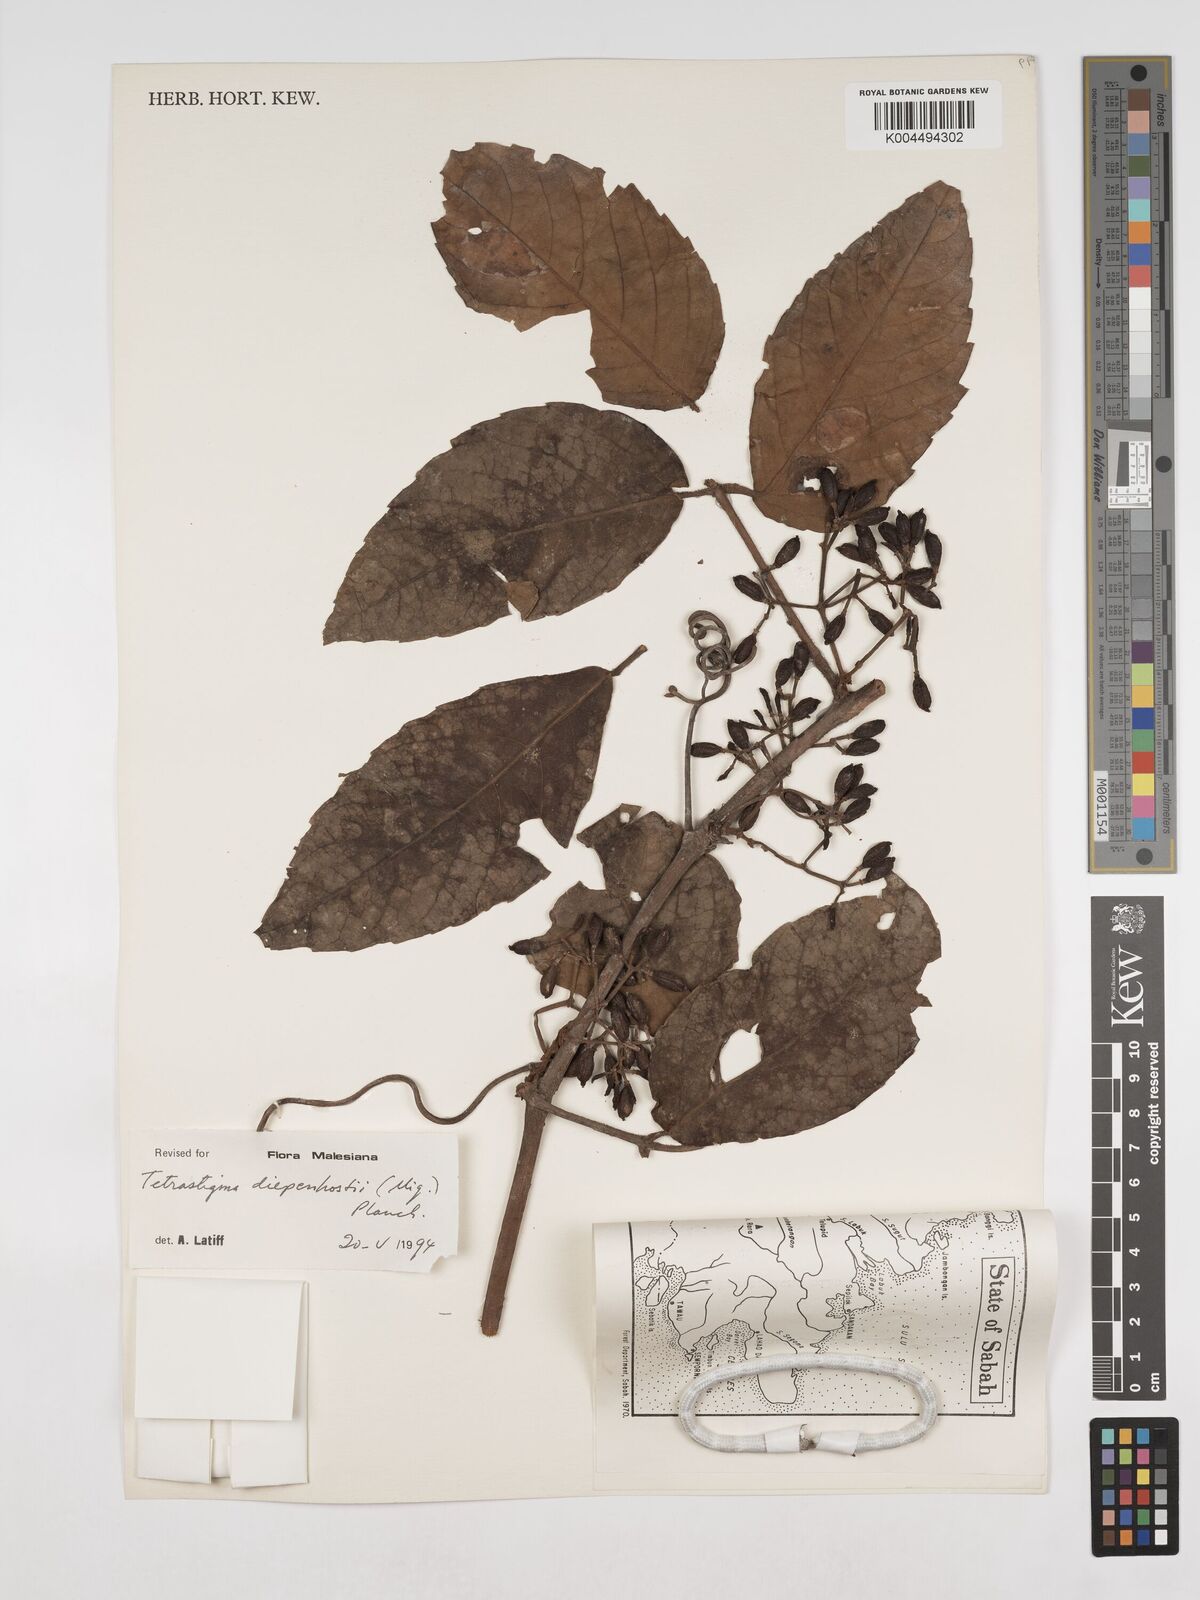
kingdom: Plantae
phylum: Tracheophyta
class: Magnoliopsida
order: Vitales
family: Vitaceae
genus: Tetrastigma
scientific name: Tetrastigma diepenhorstii
